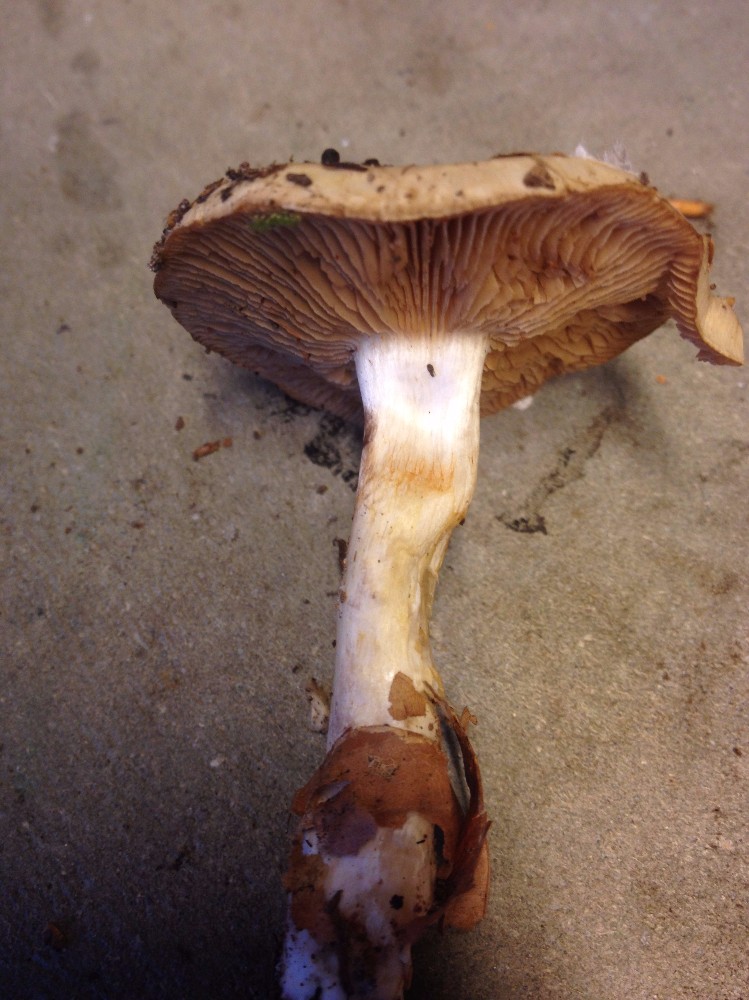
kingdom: Fungi
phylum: Basidiomycota
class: Agaricomycetes
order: Agaricales
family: Cortinariaceae
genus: Cortinarius
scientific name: Cortinarius delibutus
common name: gul slørhat
